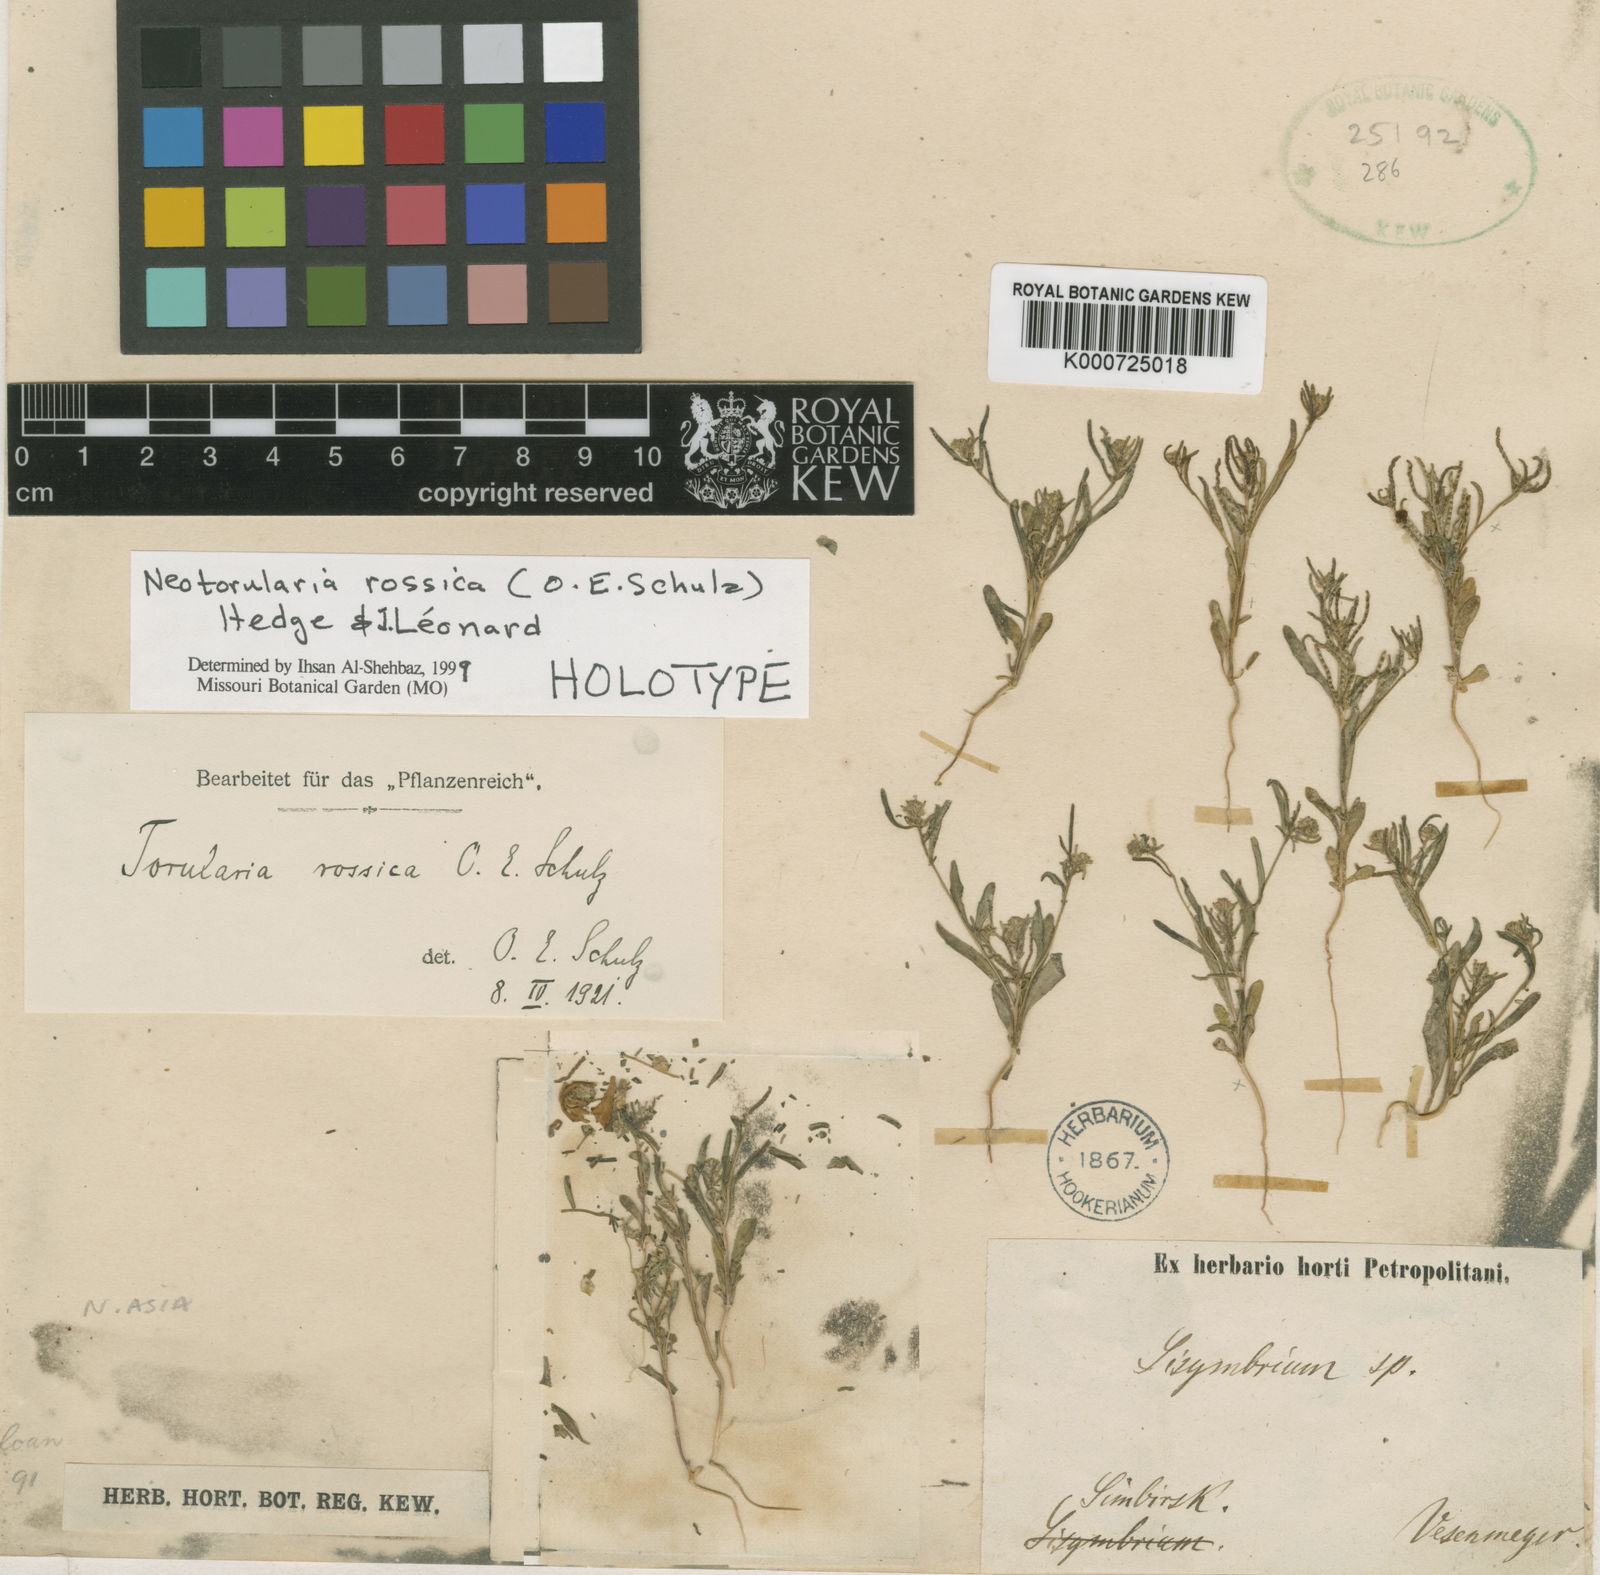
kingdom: Plantae
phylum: Tracheophyta
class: Magnoliopsida
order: Brassicales
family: Brassicaceae
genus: Neotorularia
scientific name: Neotorularia
